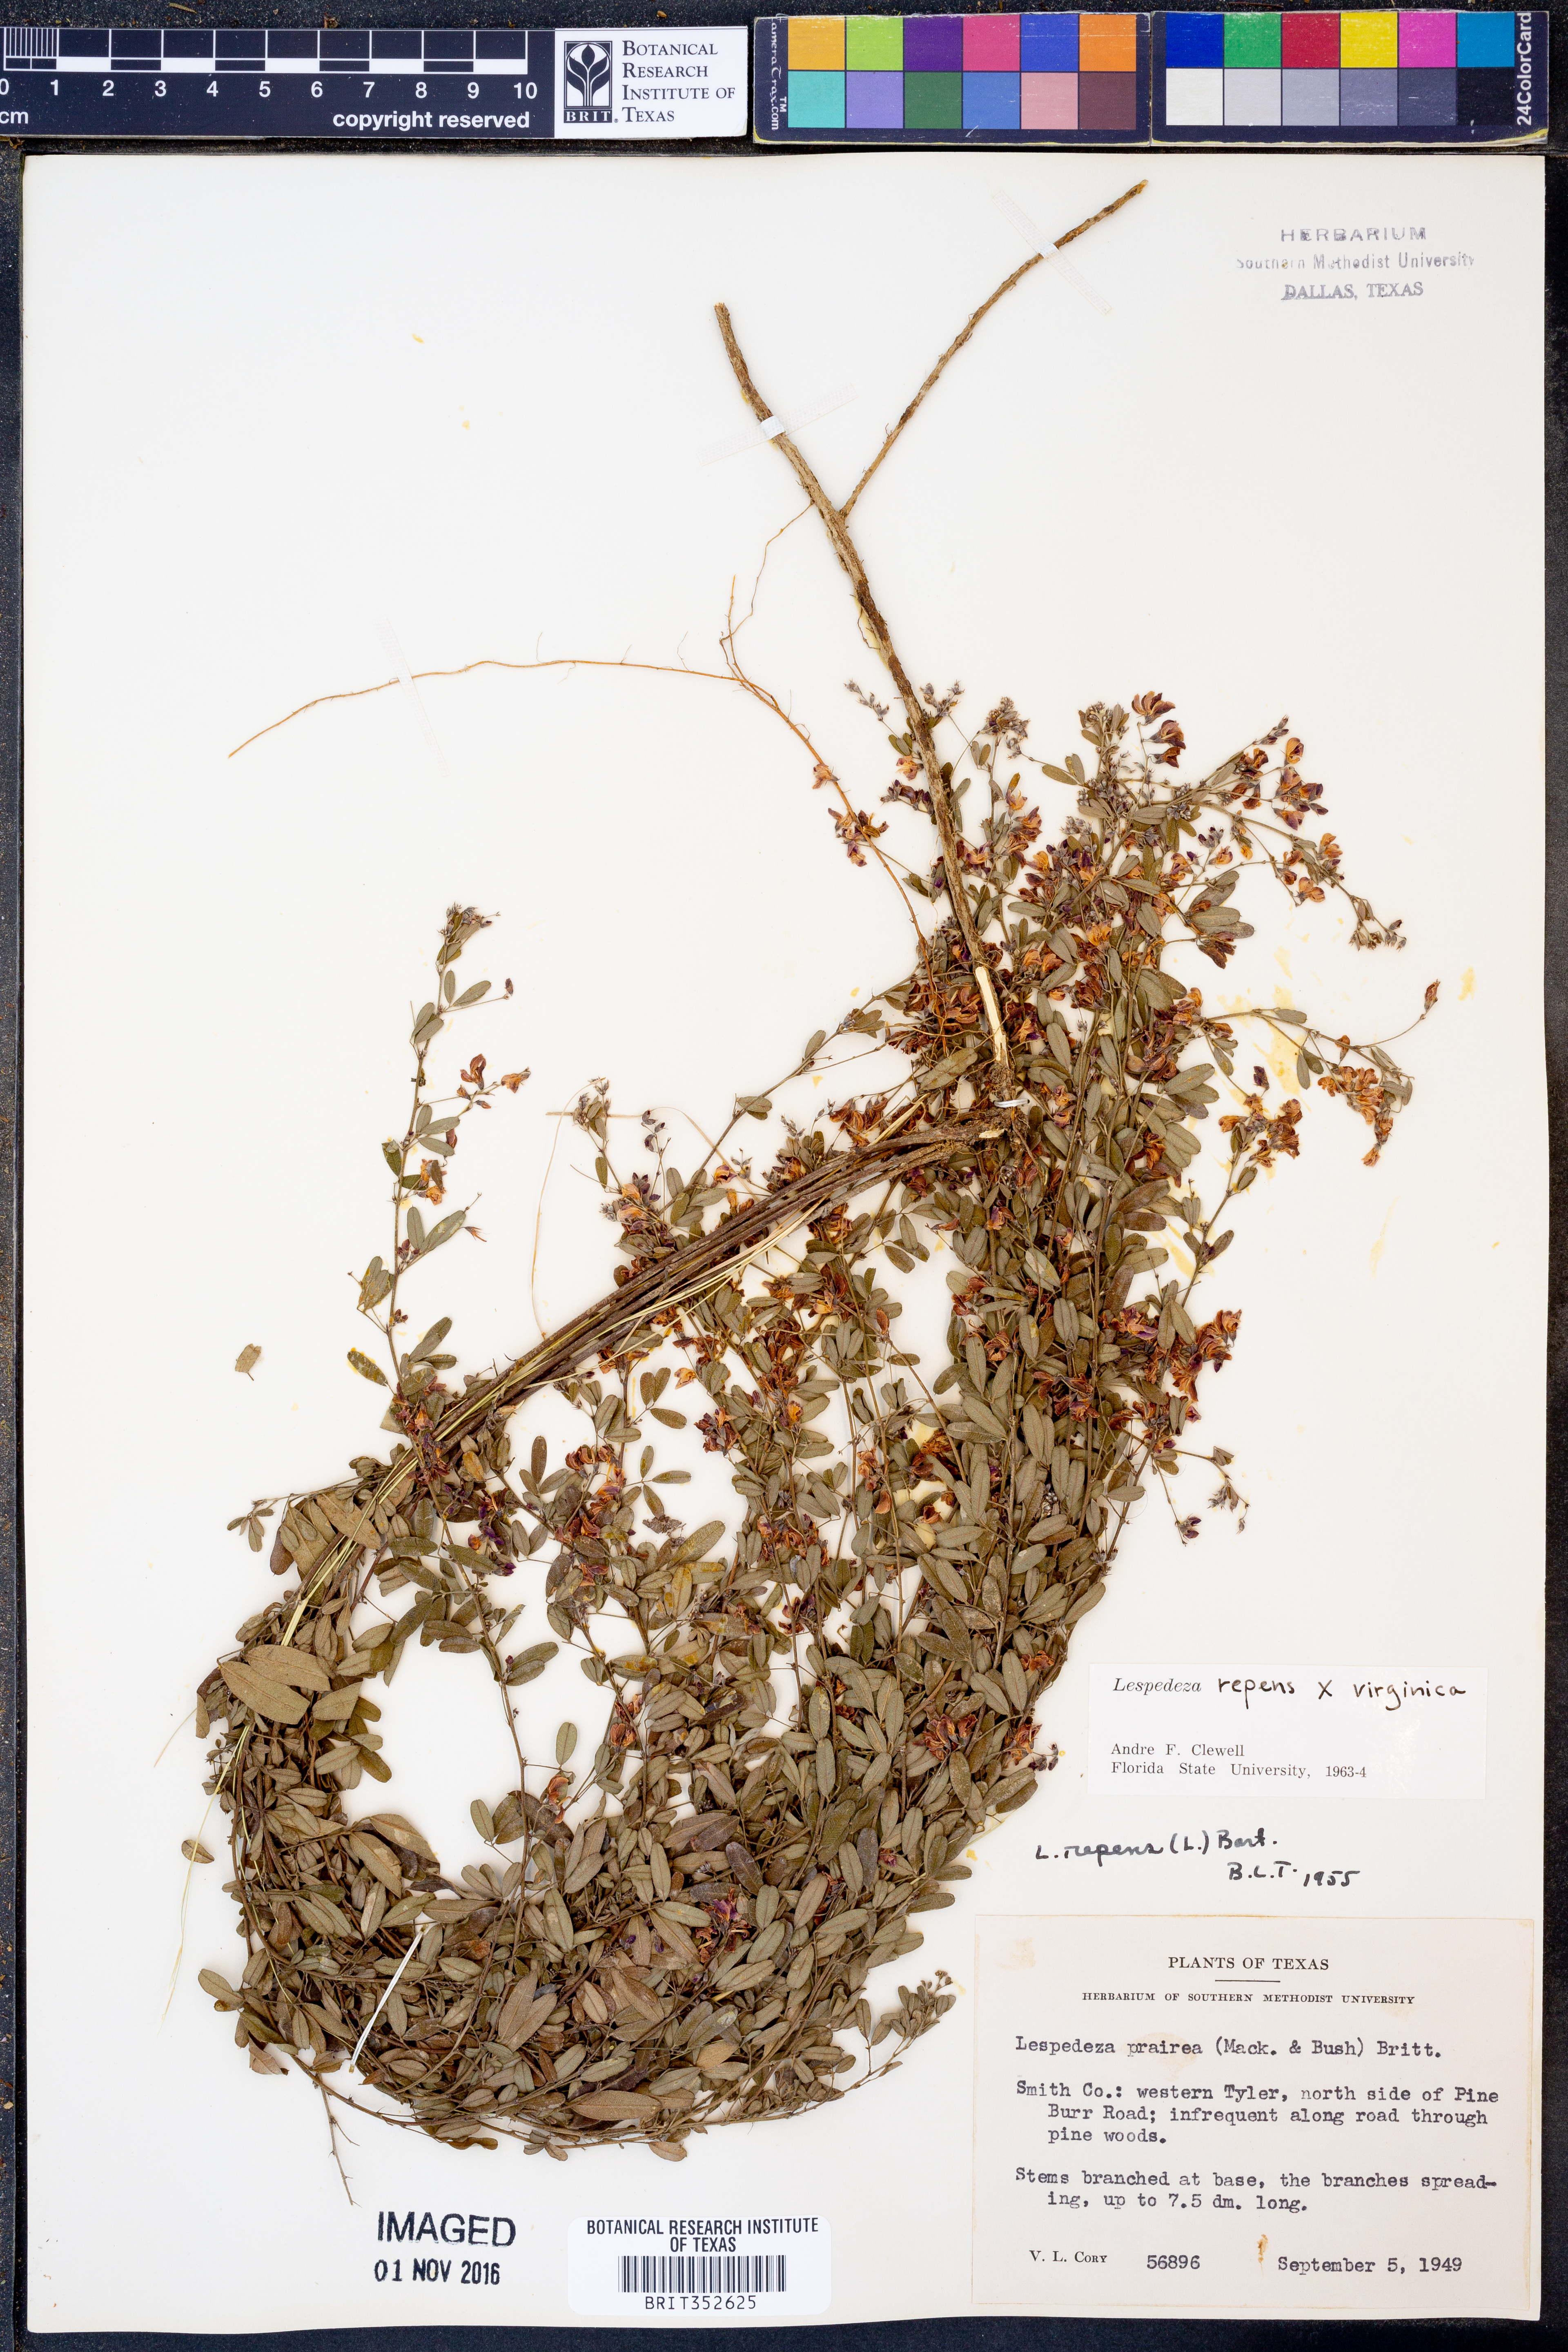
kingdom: Plantae
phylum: Tracheophyta
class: Magnoliopsida
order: Fabales
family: Fabaceae
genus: Lespedeza
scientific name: Lespedeza repens
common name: Creeping bush-clover
